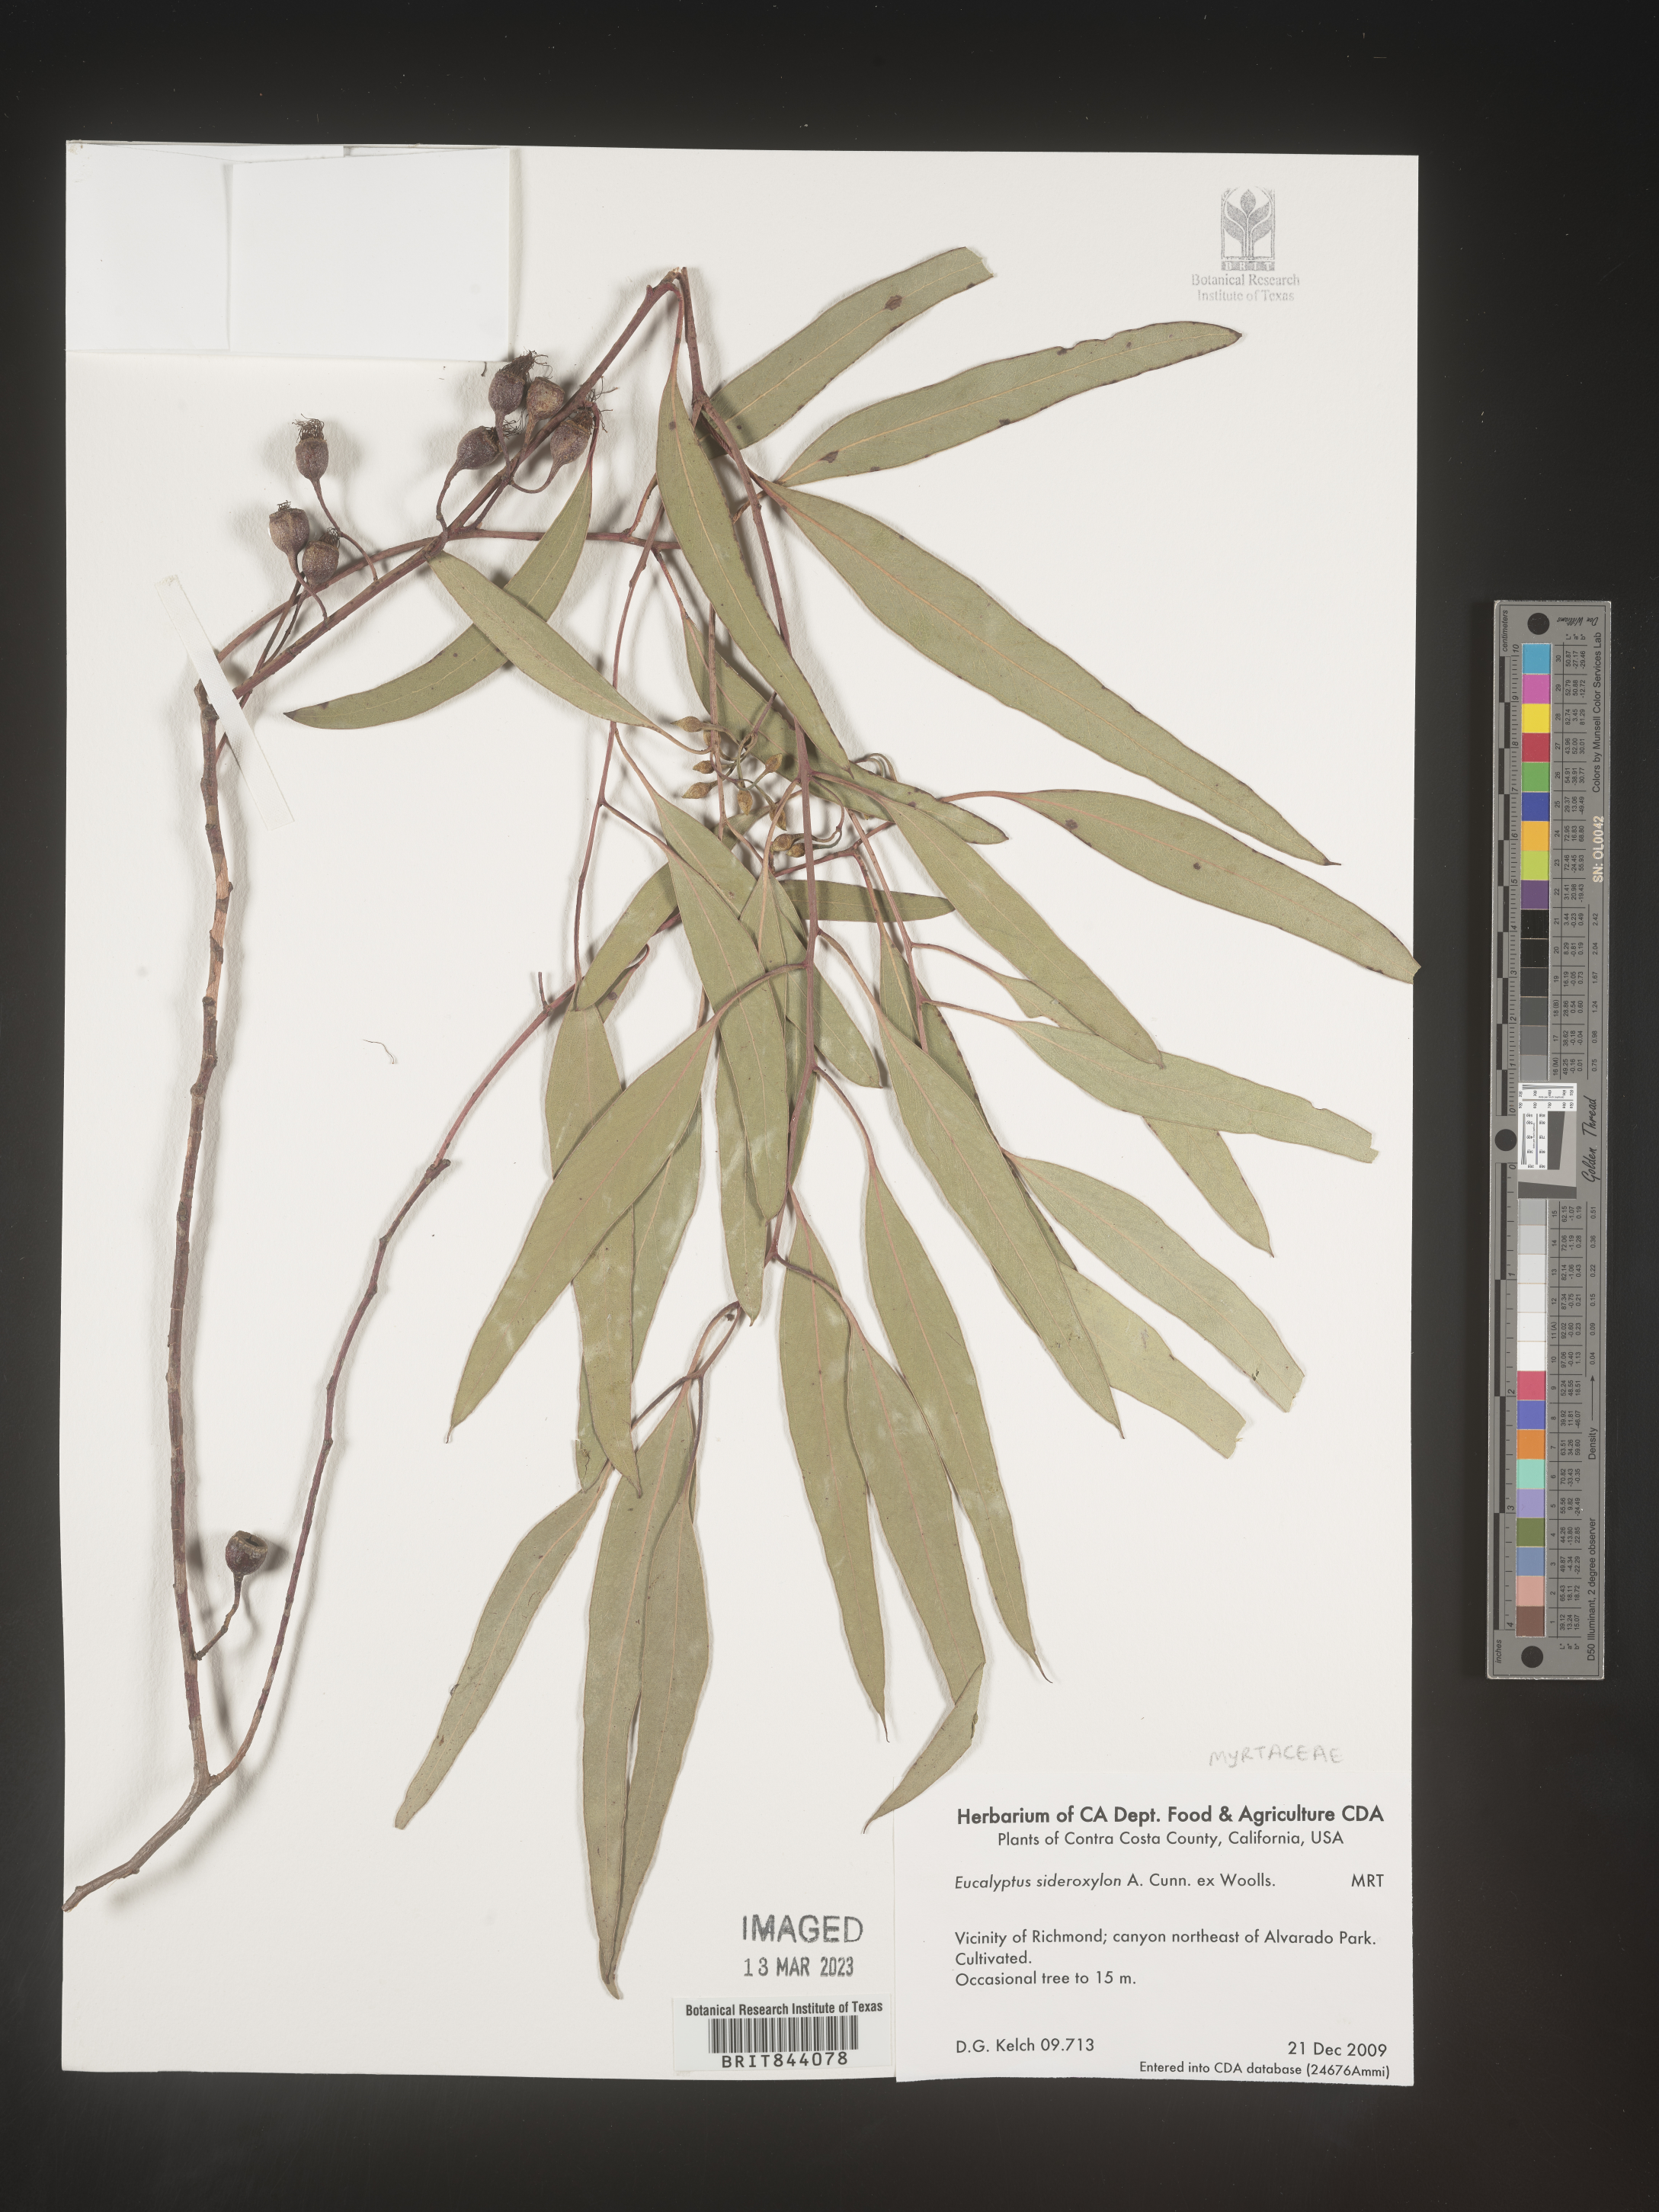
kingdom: Plantae
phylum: Tracheophyta
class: Magnoliopsida
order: Myrtales
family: Myrtaceae
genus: Eucalyptus
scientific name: Eucalyptus leucoxylon
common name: Blue gum
